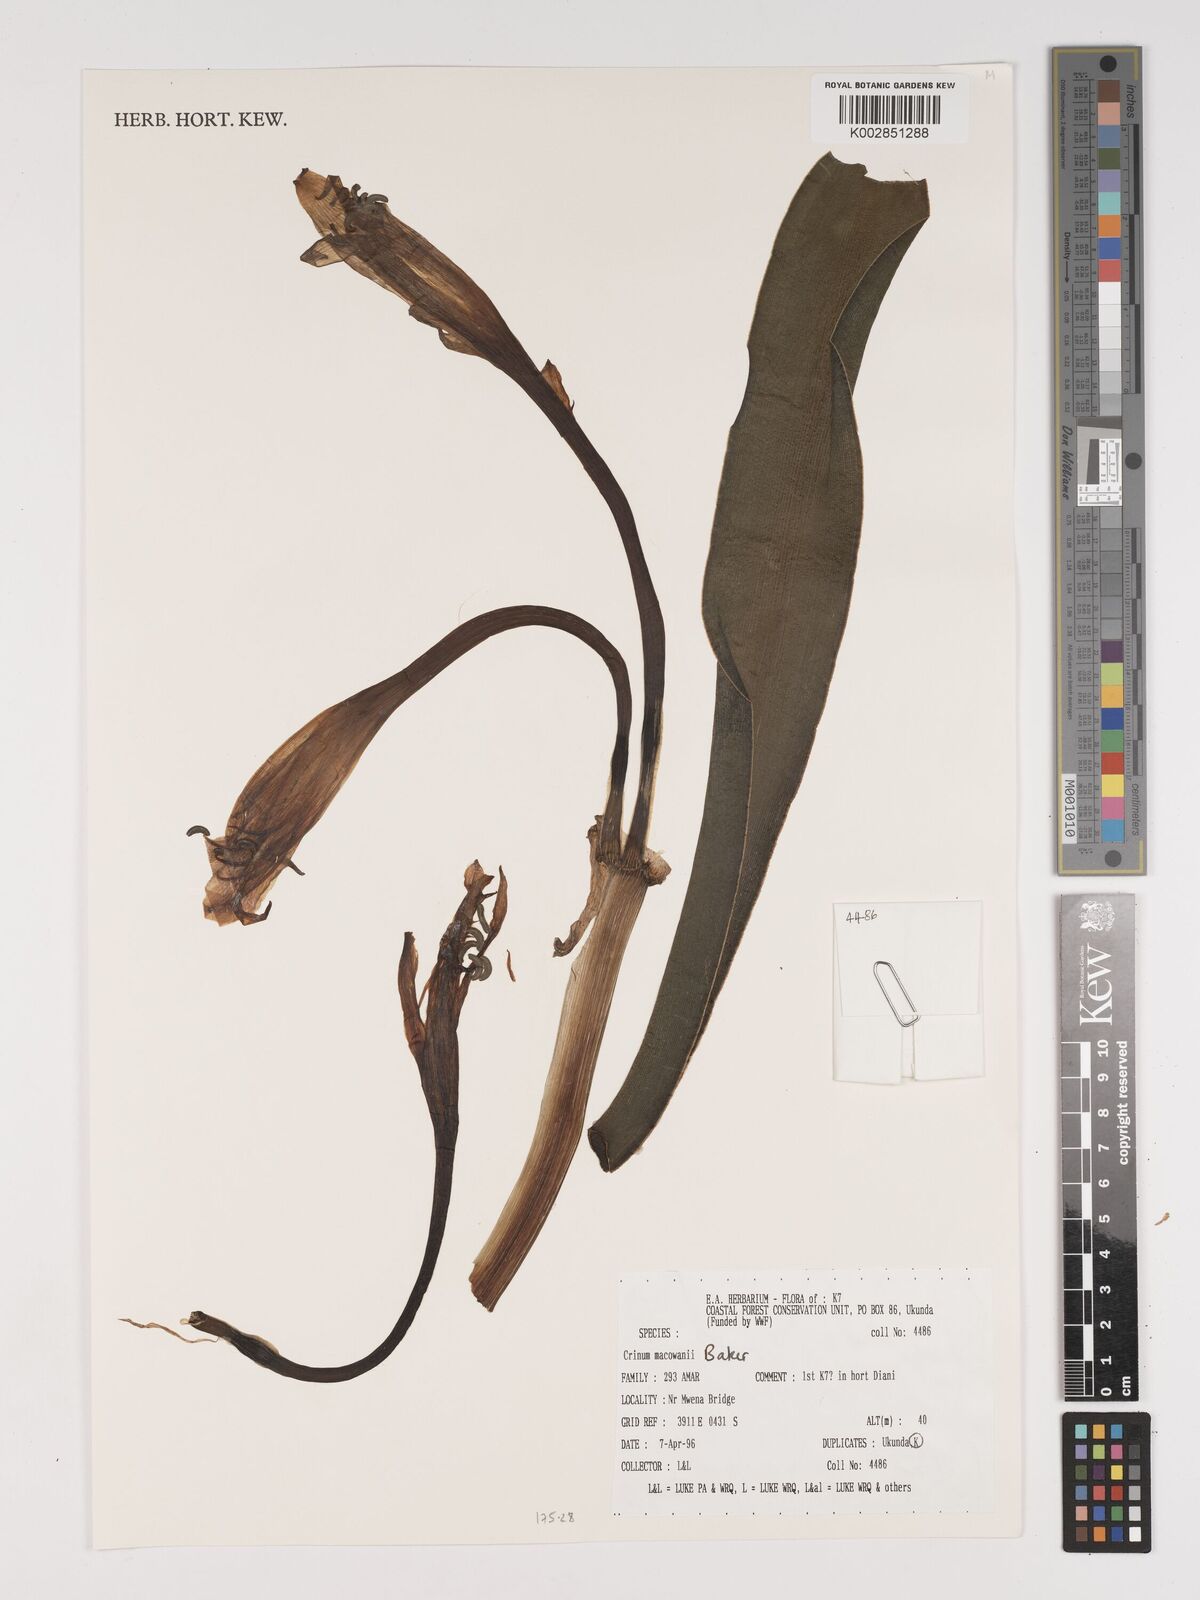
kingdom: Plantae
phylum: Tracheophyta
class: Liliopsida
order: Asparagales
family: Amaryllidaceae
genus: Crinum
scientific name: Crinum macowanii
